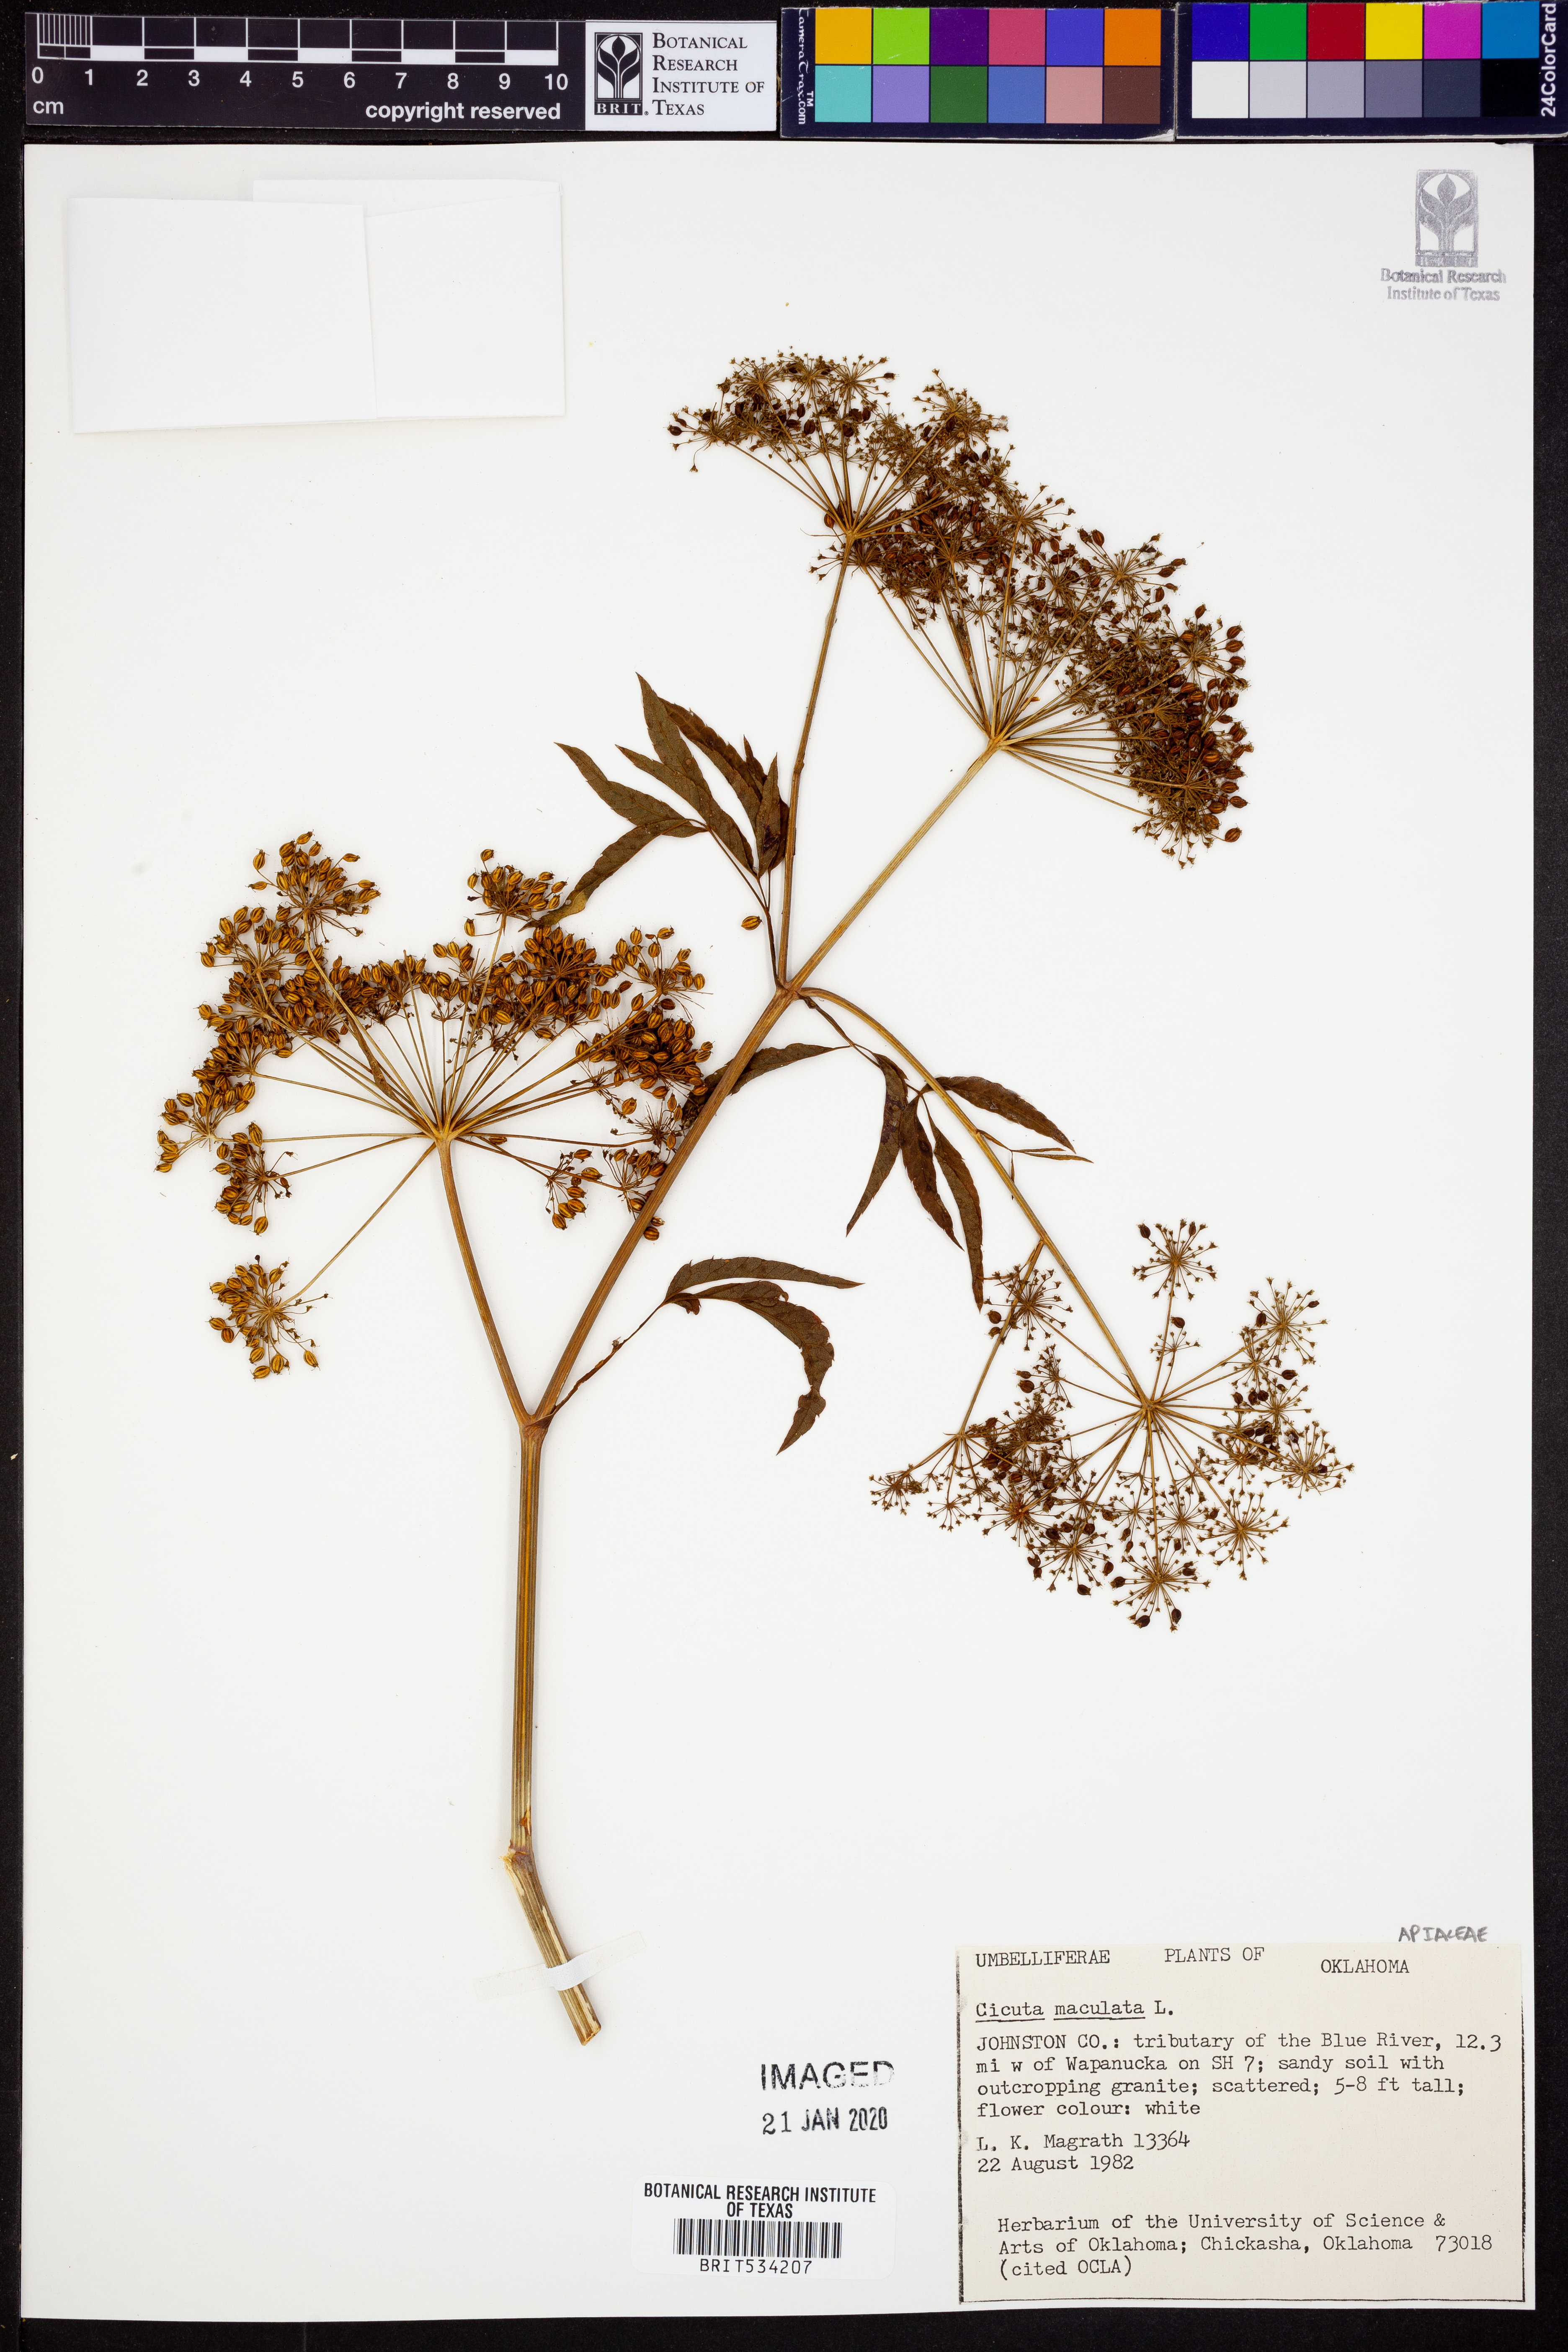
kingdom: Plantae
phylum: Tracheophyta
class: Magnoliopsida
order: Apiales
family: Apiaceae
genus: Cicuta
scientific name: Cicuta maculata
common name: Spotted cowbane
